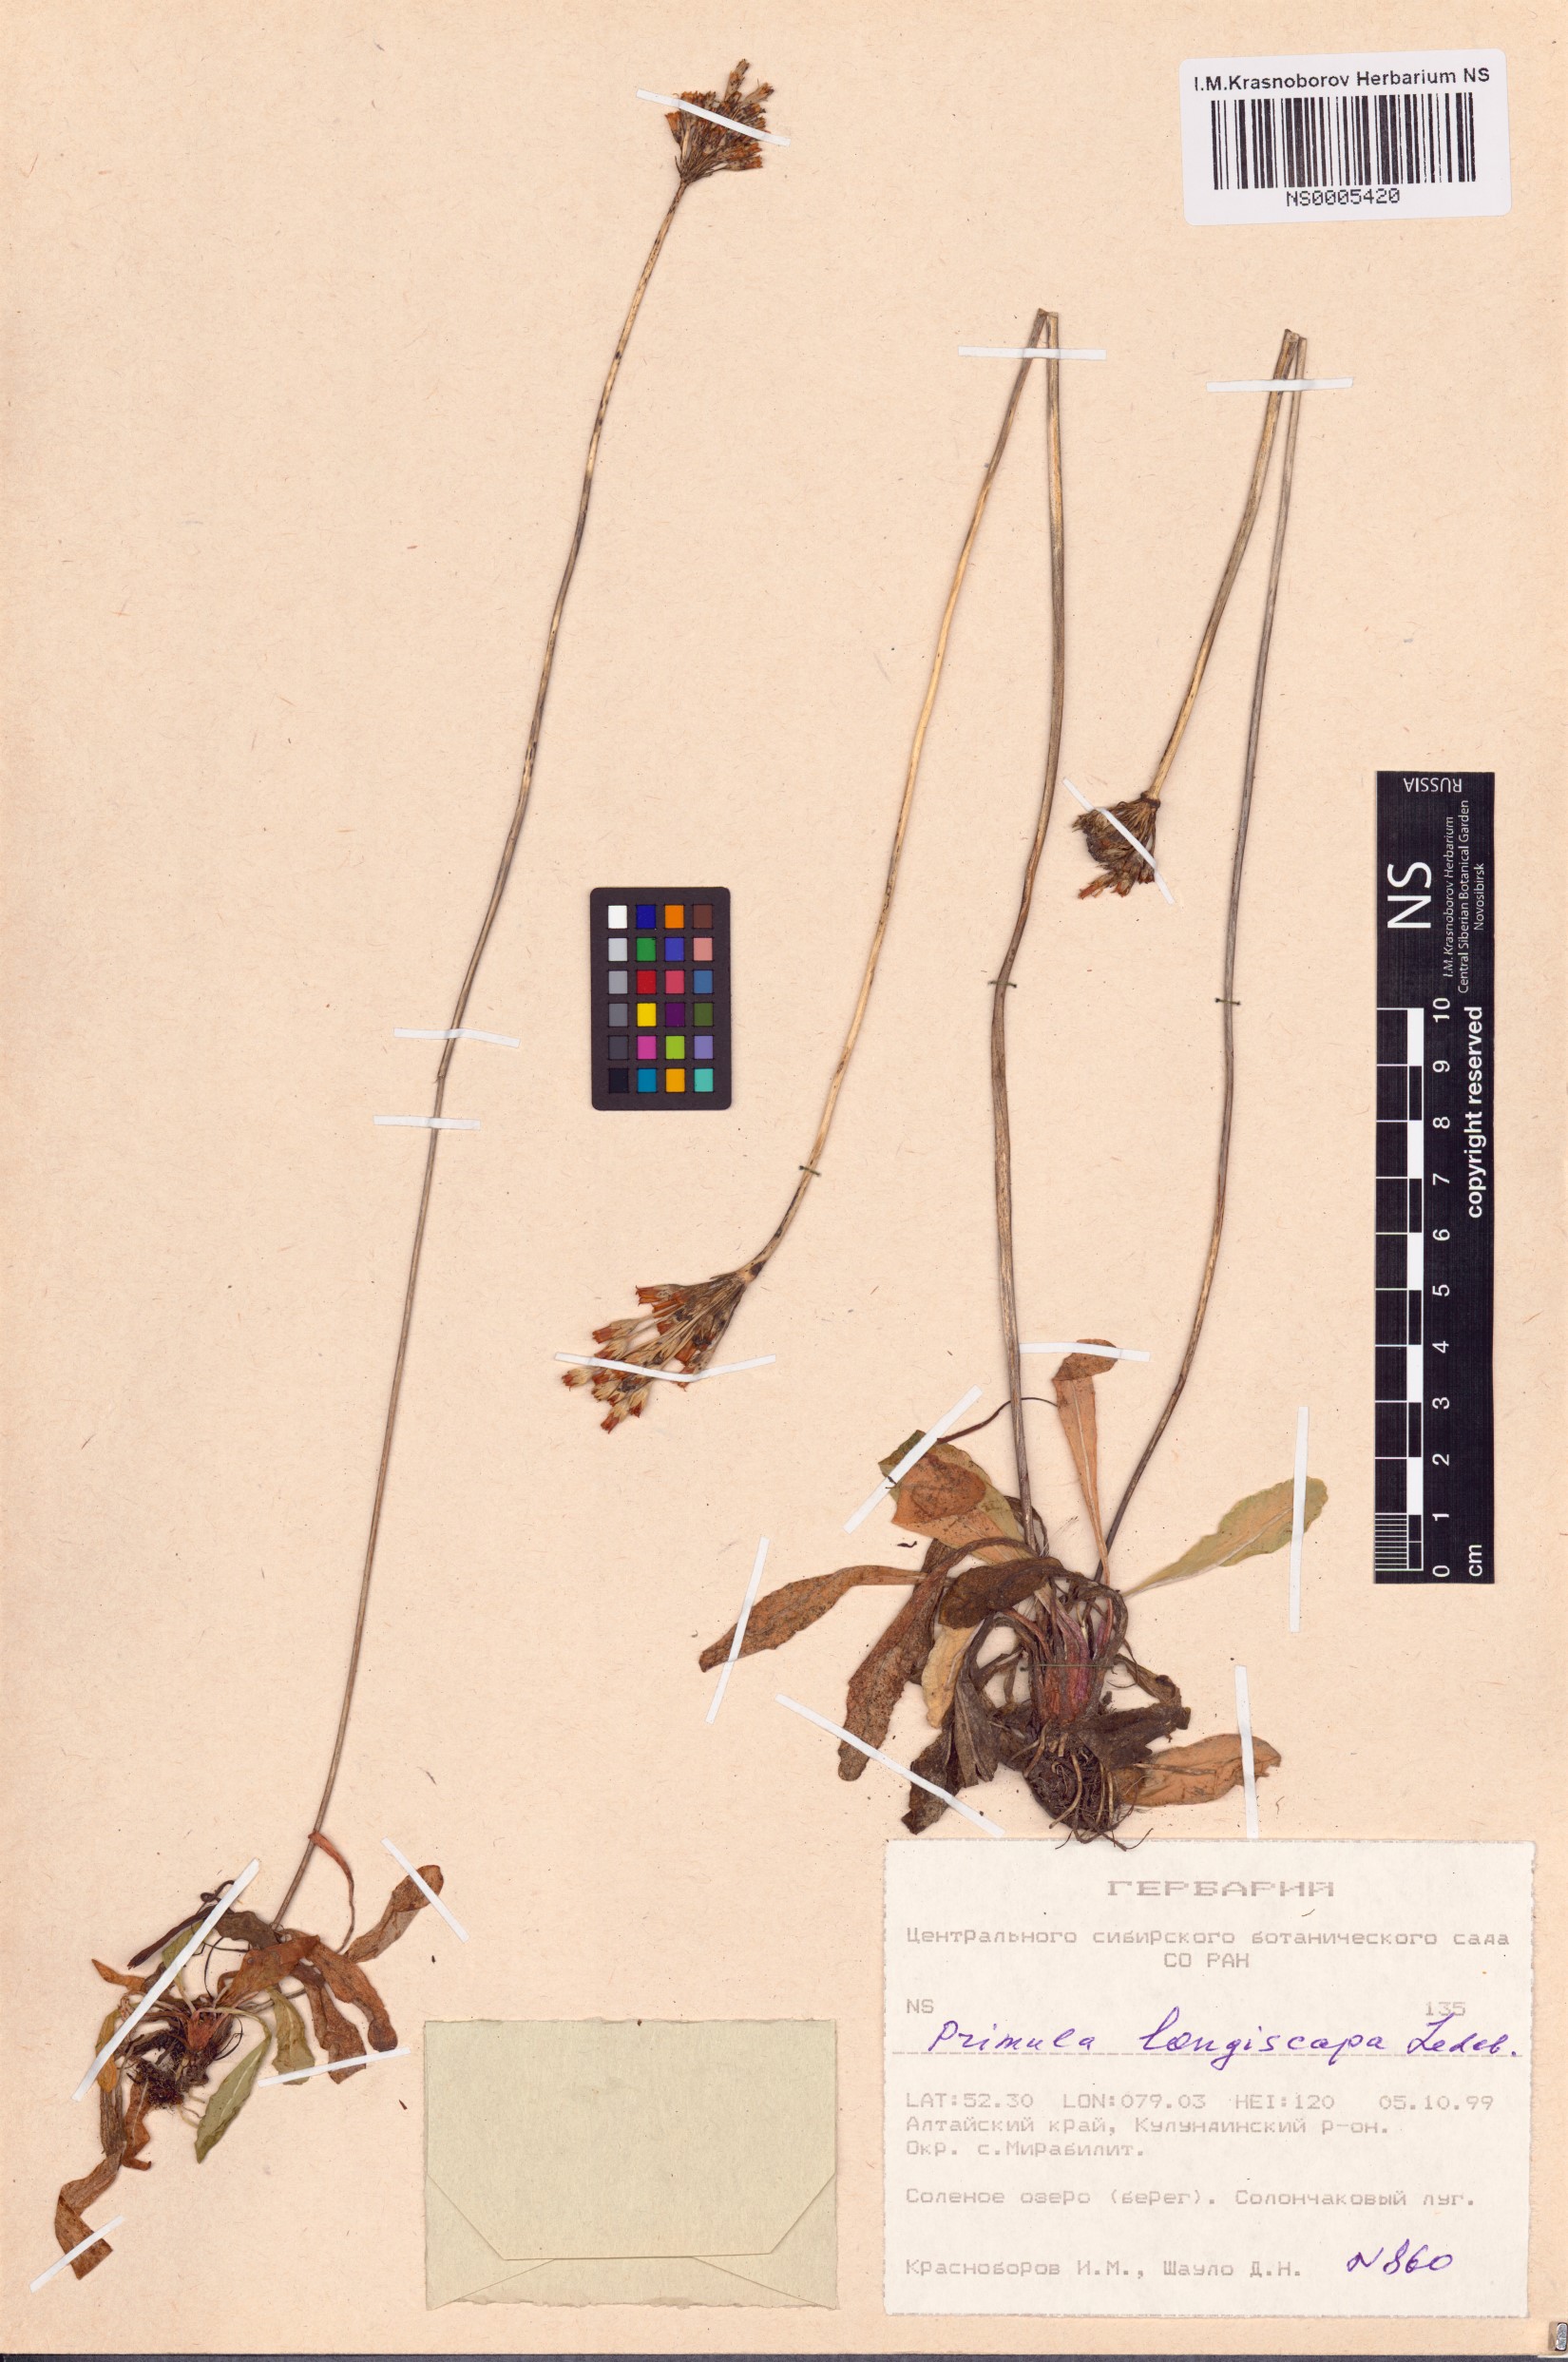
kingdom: Plantae
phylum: Tracheophyta
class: Magnoliopsida
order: Ericales
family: Primulaceae
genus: Primula
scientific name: Primula longiscapa
